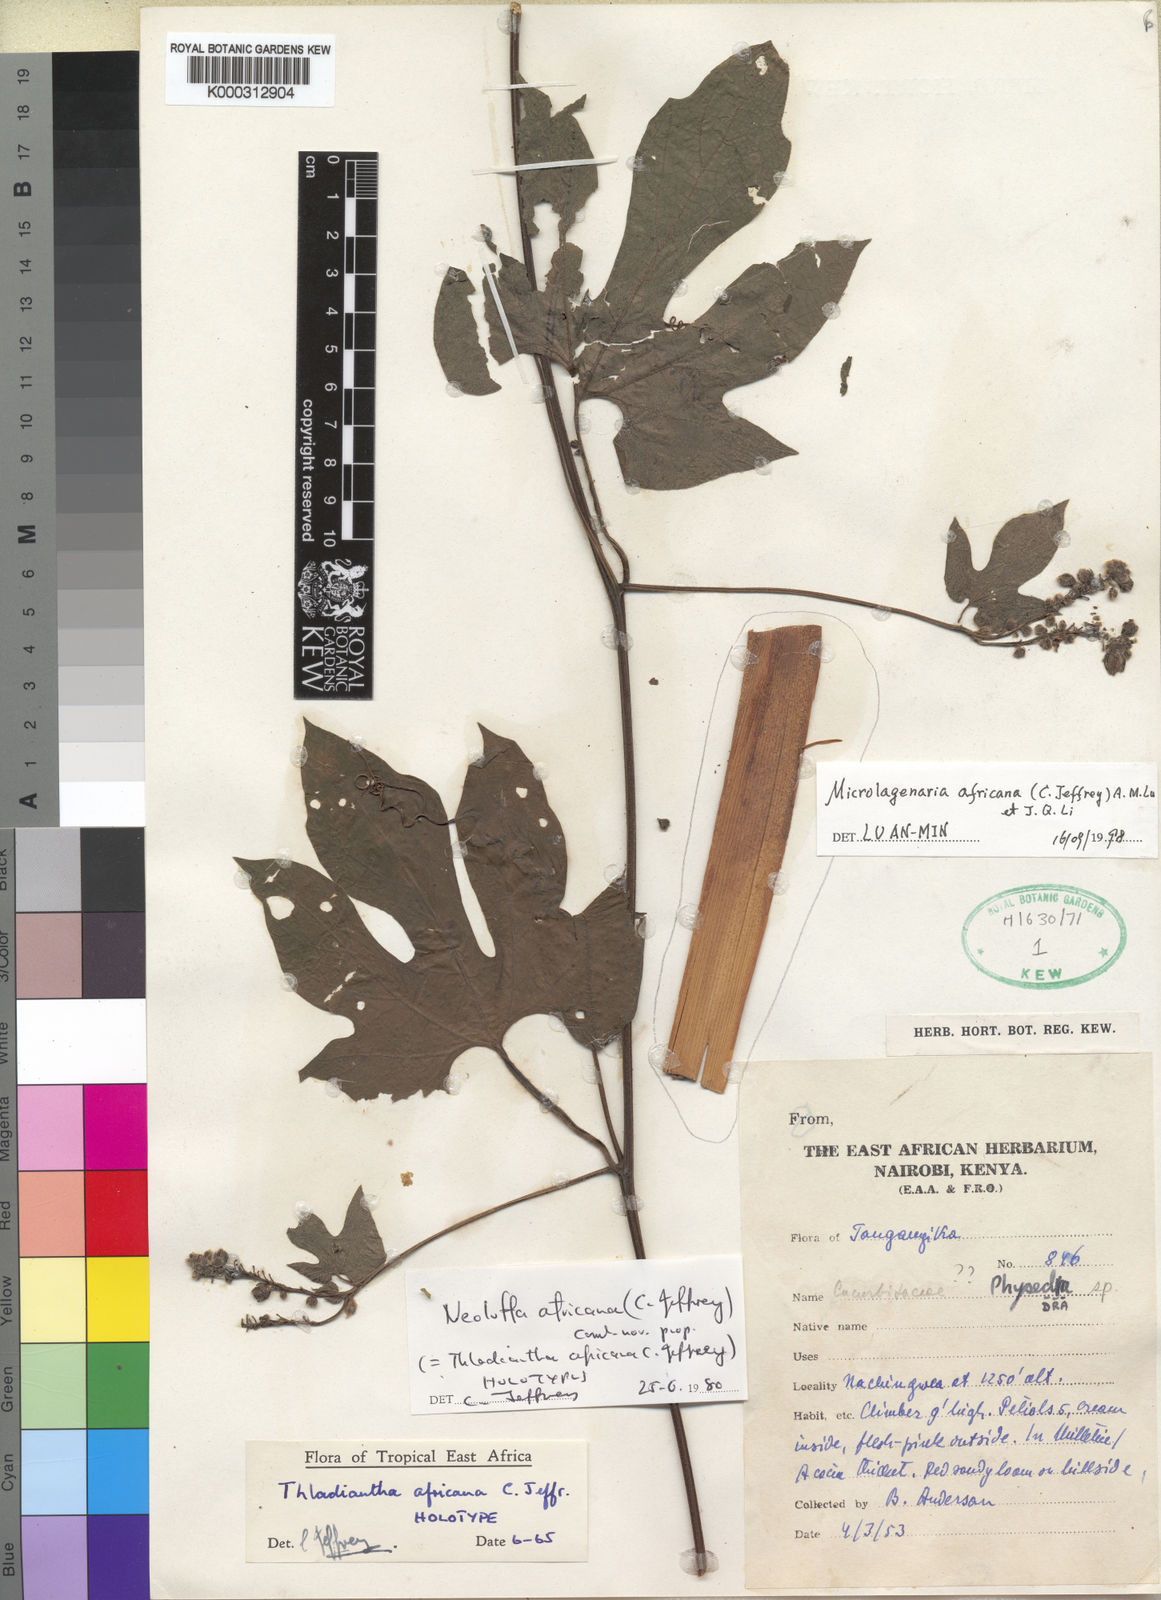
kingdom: Plantae
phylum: Tracheophyta
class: Magnoliopsida
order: Cucurbitales
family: Cucurbitaceae
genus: Siraitia
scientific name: Siraitia africana
